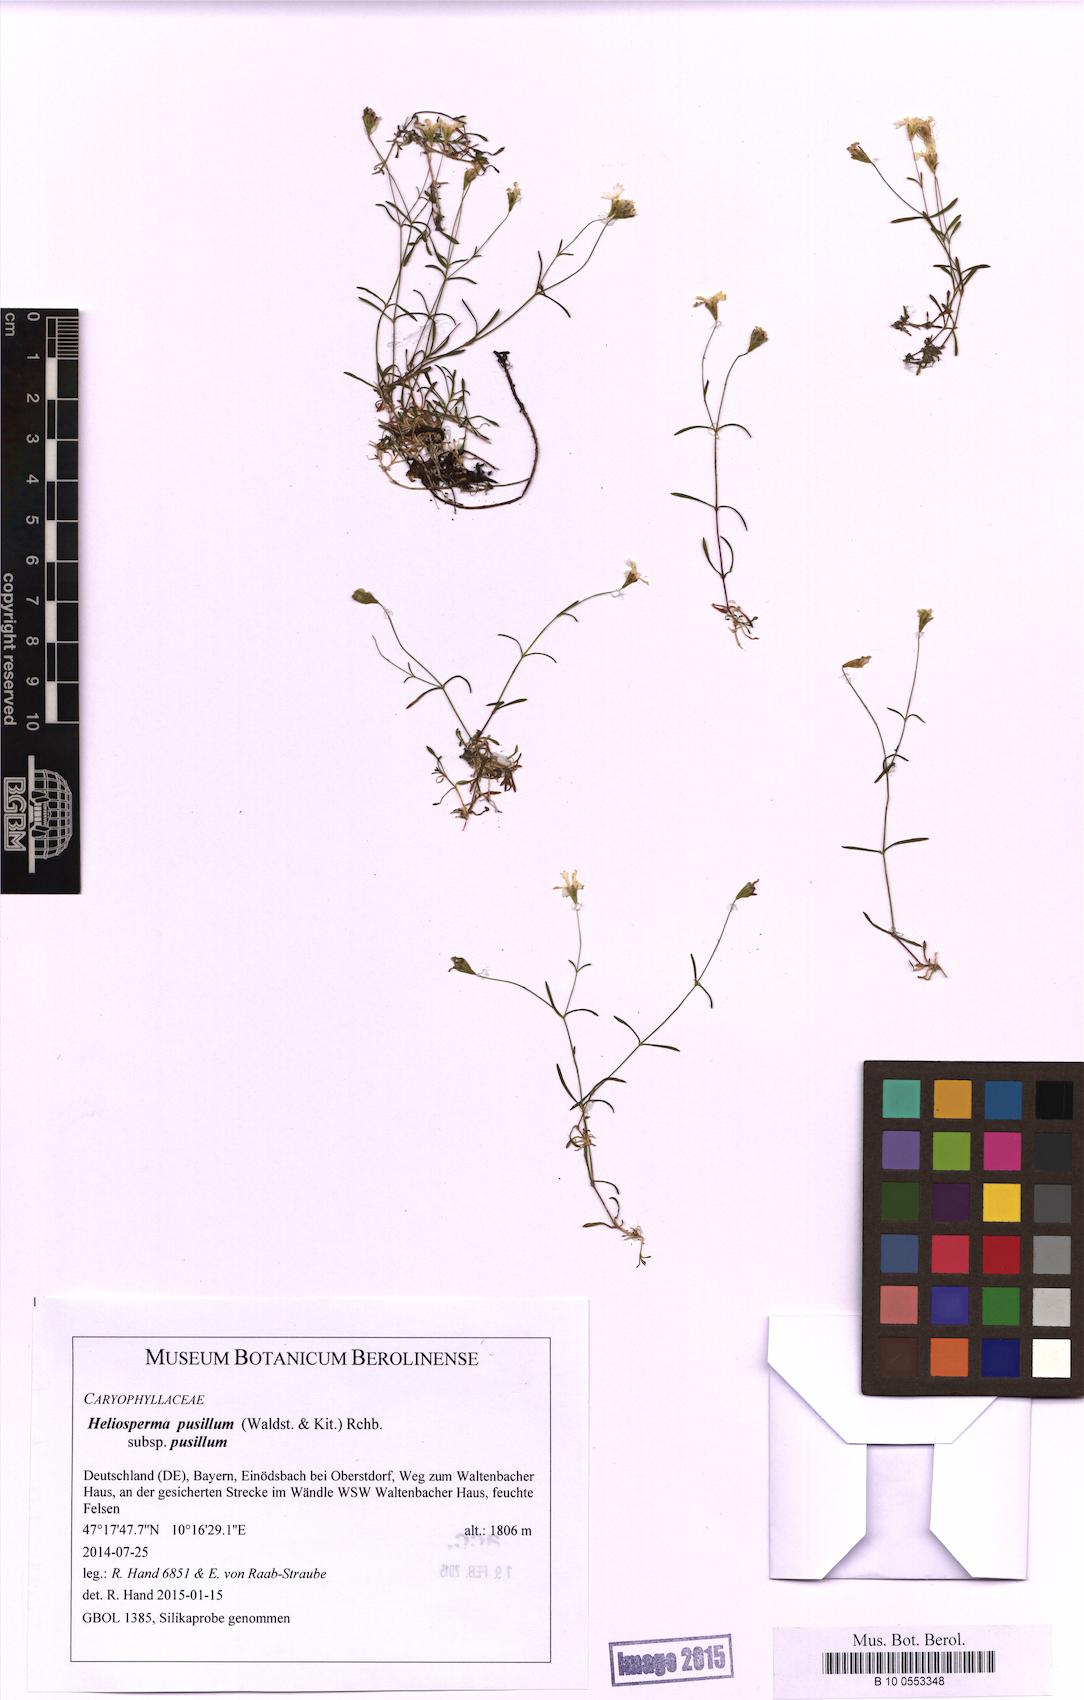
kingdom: Plantae
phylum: Tracheophyta
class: Magnoliopsida
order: Caryophyllales
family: Caryophyllaceae
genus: Heliosperma
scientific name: Heliosperma pusillum
